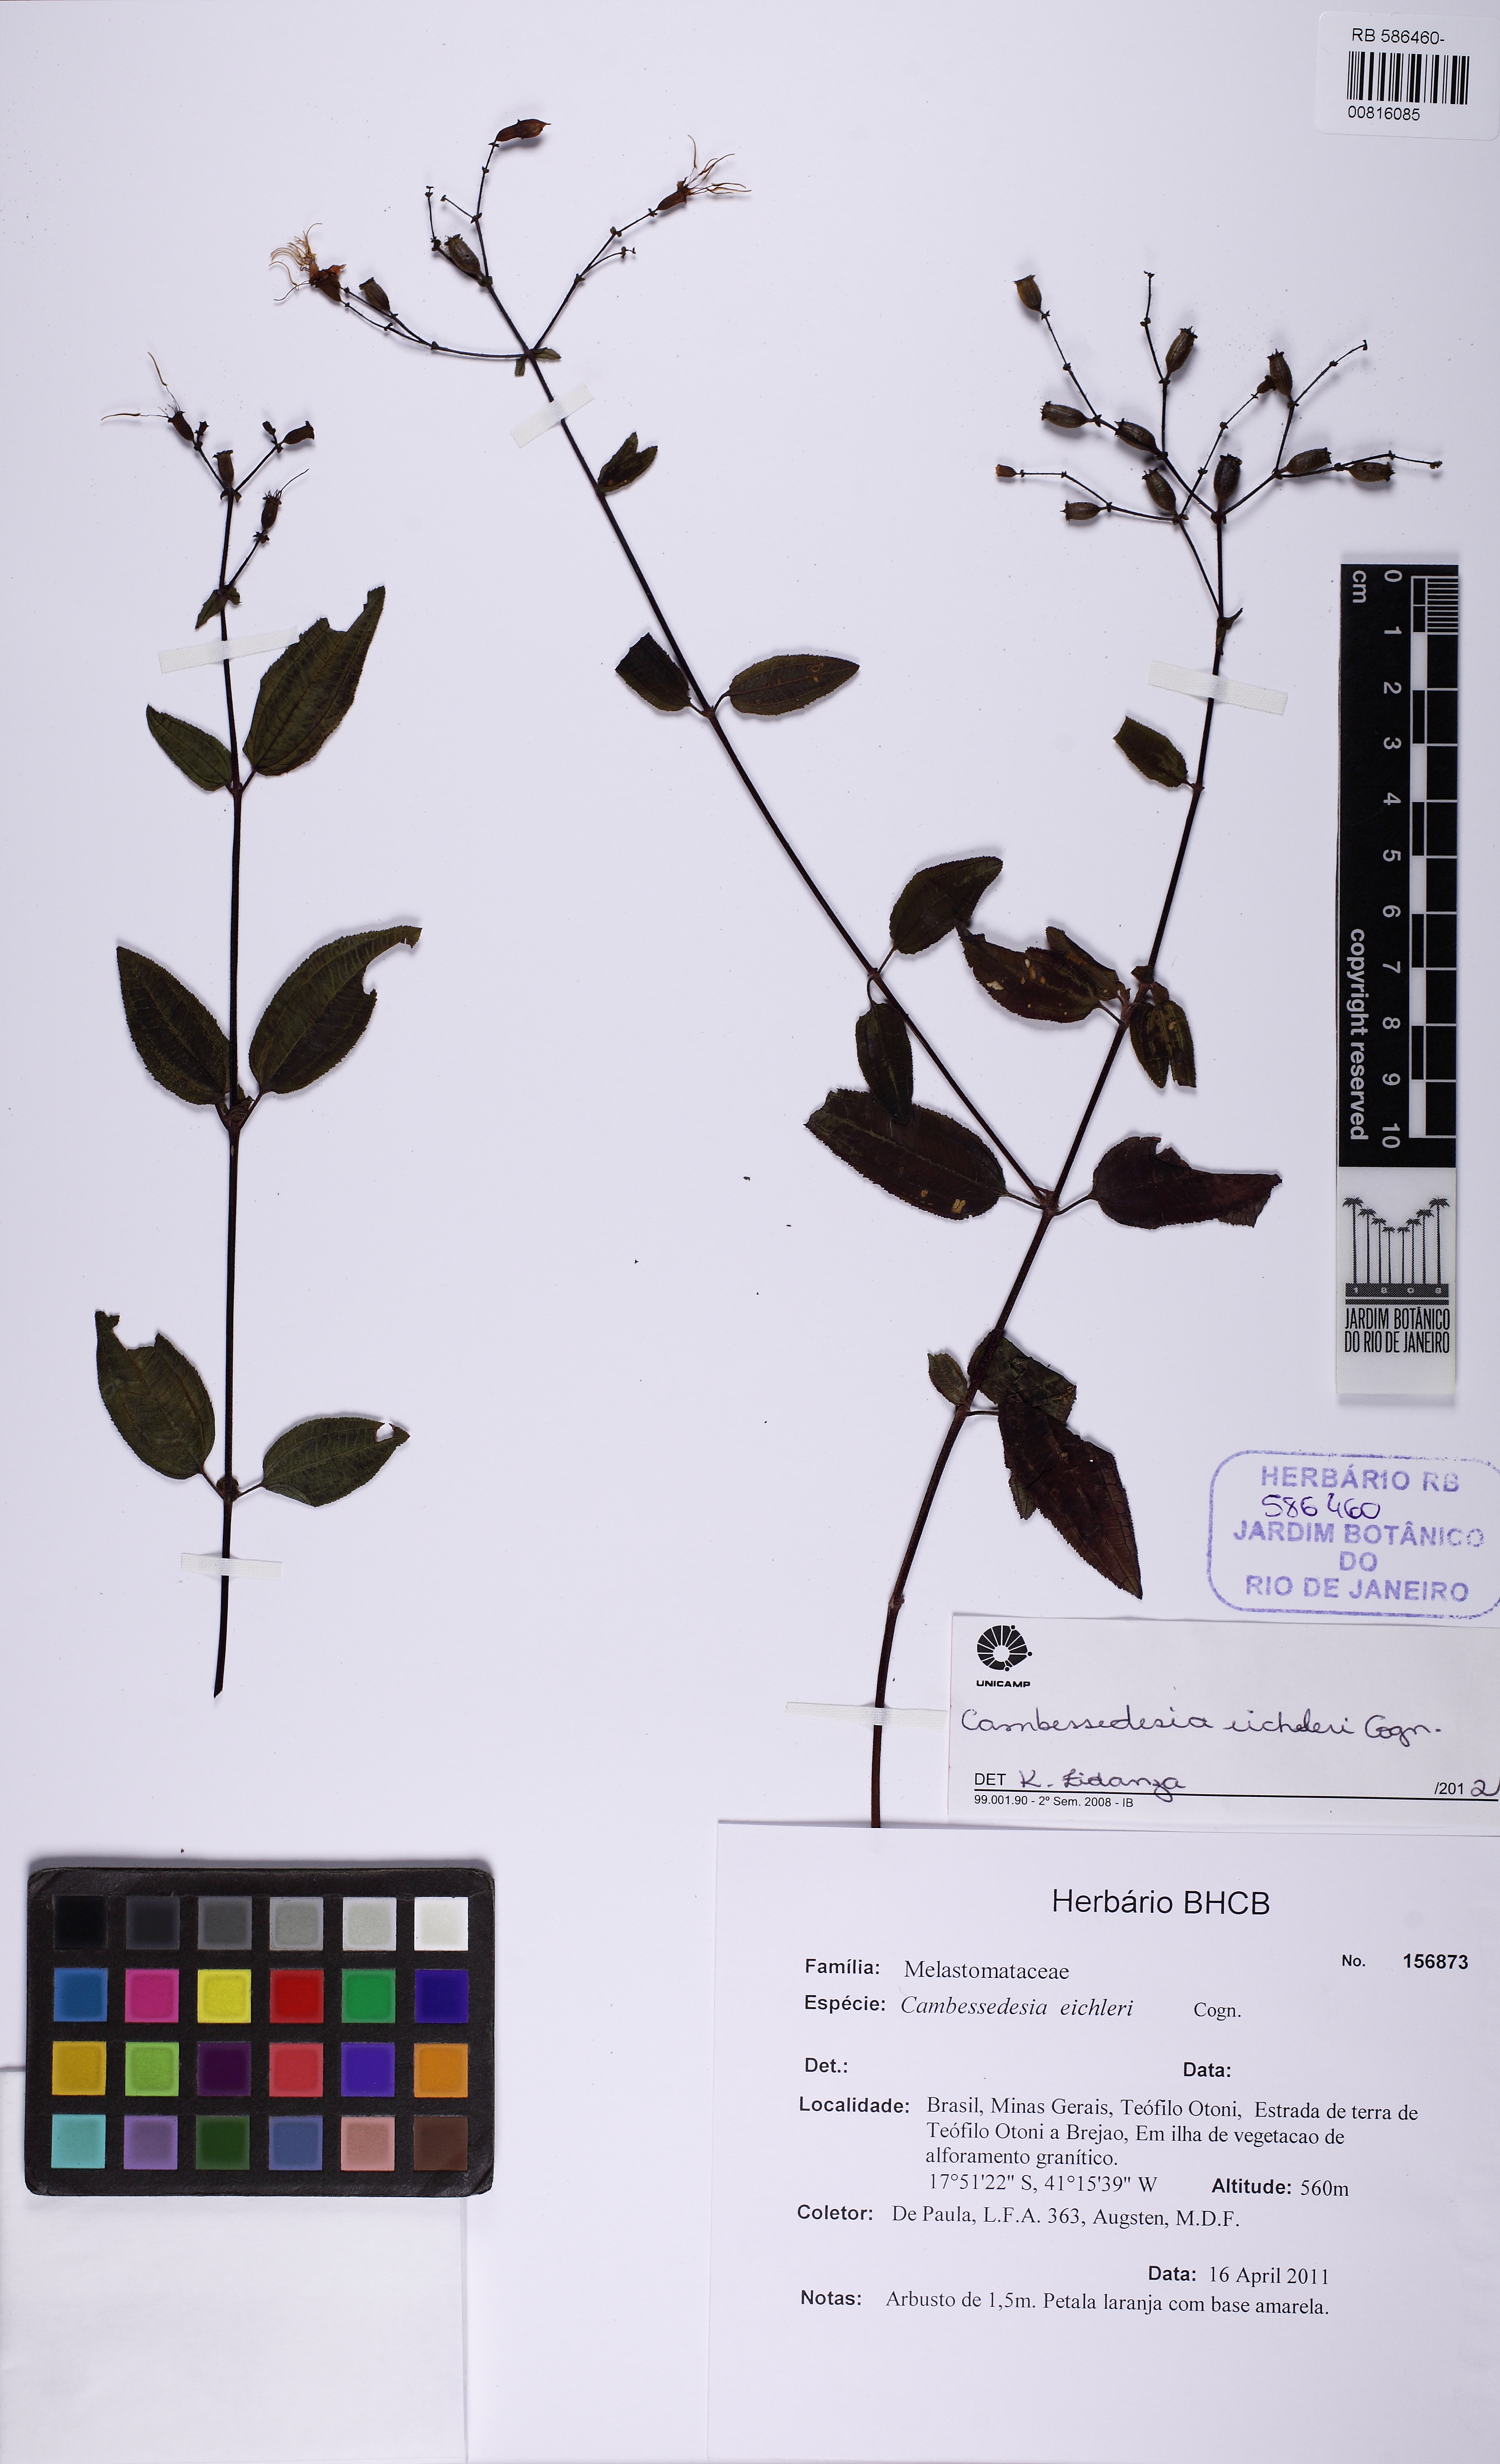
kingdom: Plantae
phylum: Tracheophyta
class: Magnoliopsida
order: Myrtales
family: Melastomataceae
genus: Cambessedesia
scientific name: Cambessedesia eichleri
